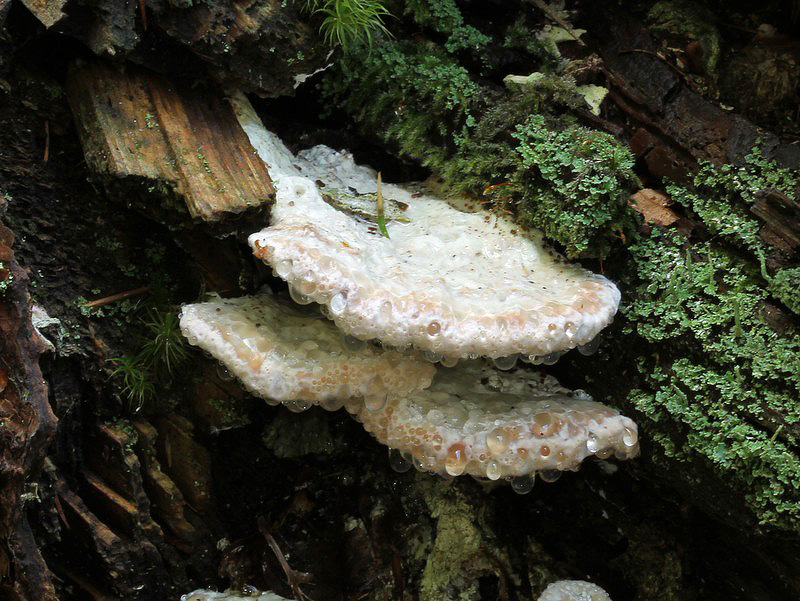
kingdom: Fungi
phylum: Basidiomycota
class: Agaricomycetes
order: Polyporales
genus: Calcipostia
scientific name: Calcipostia guttulata
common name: dråbe-kødporesvamp
